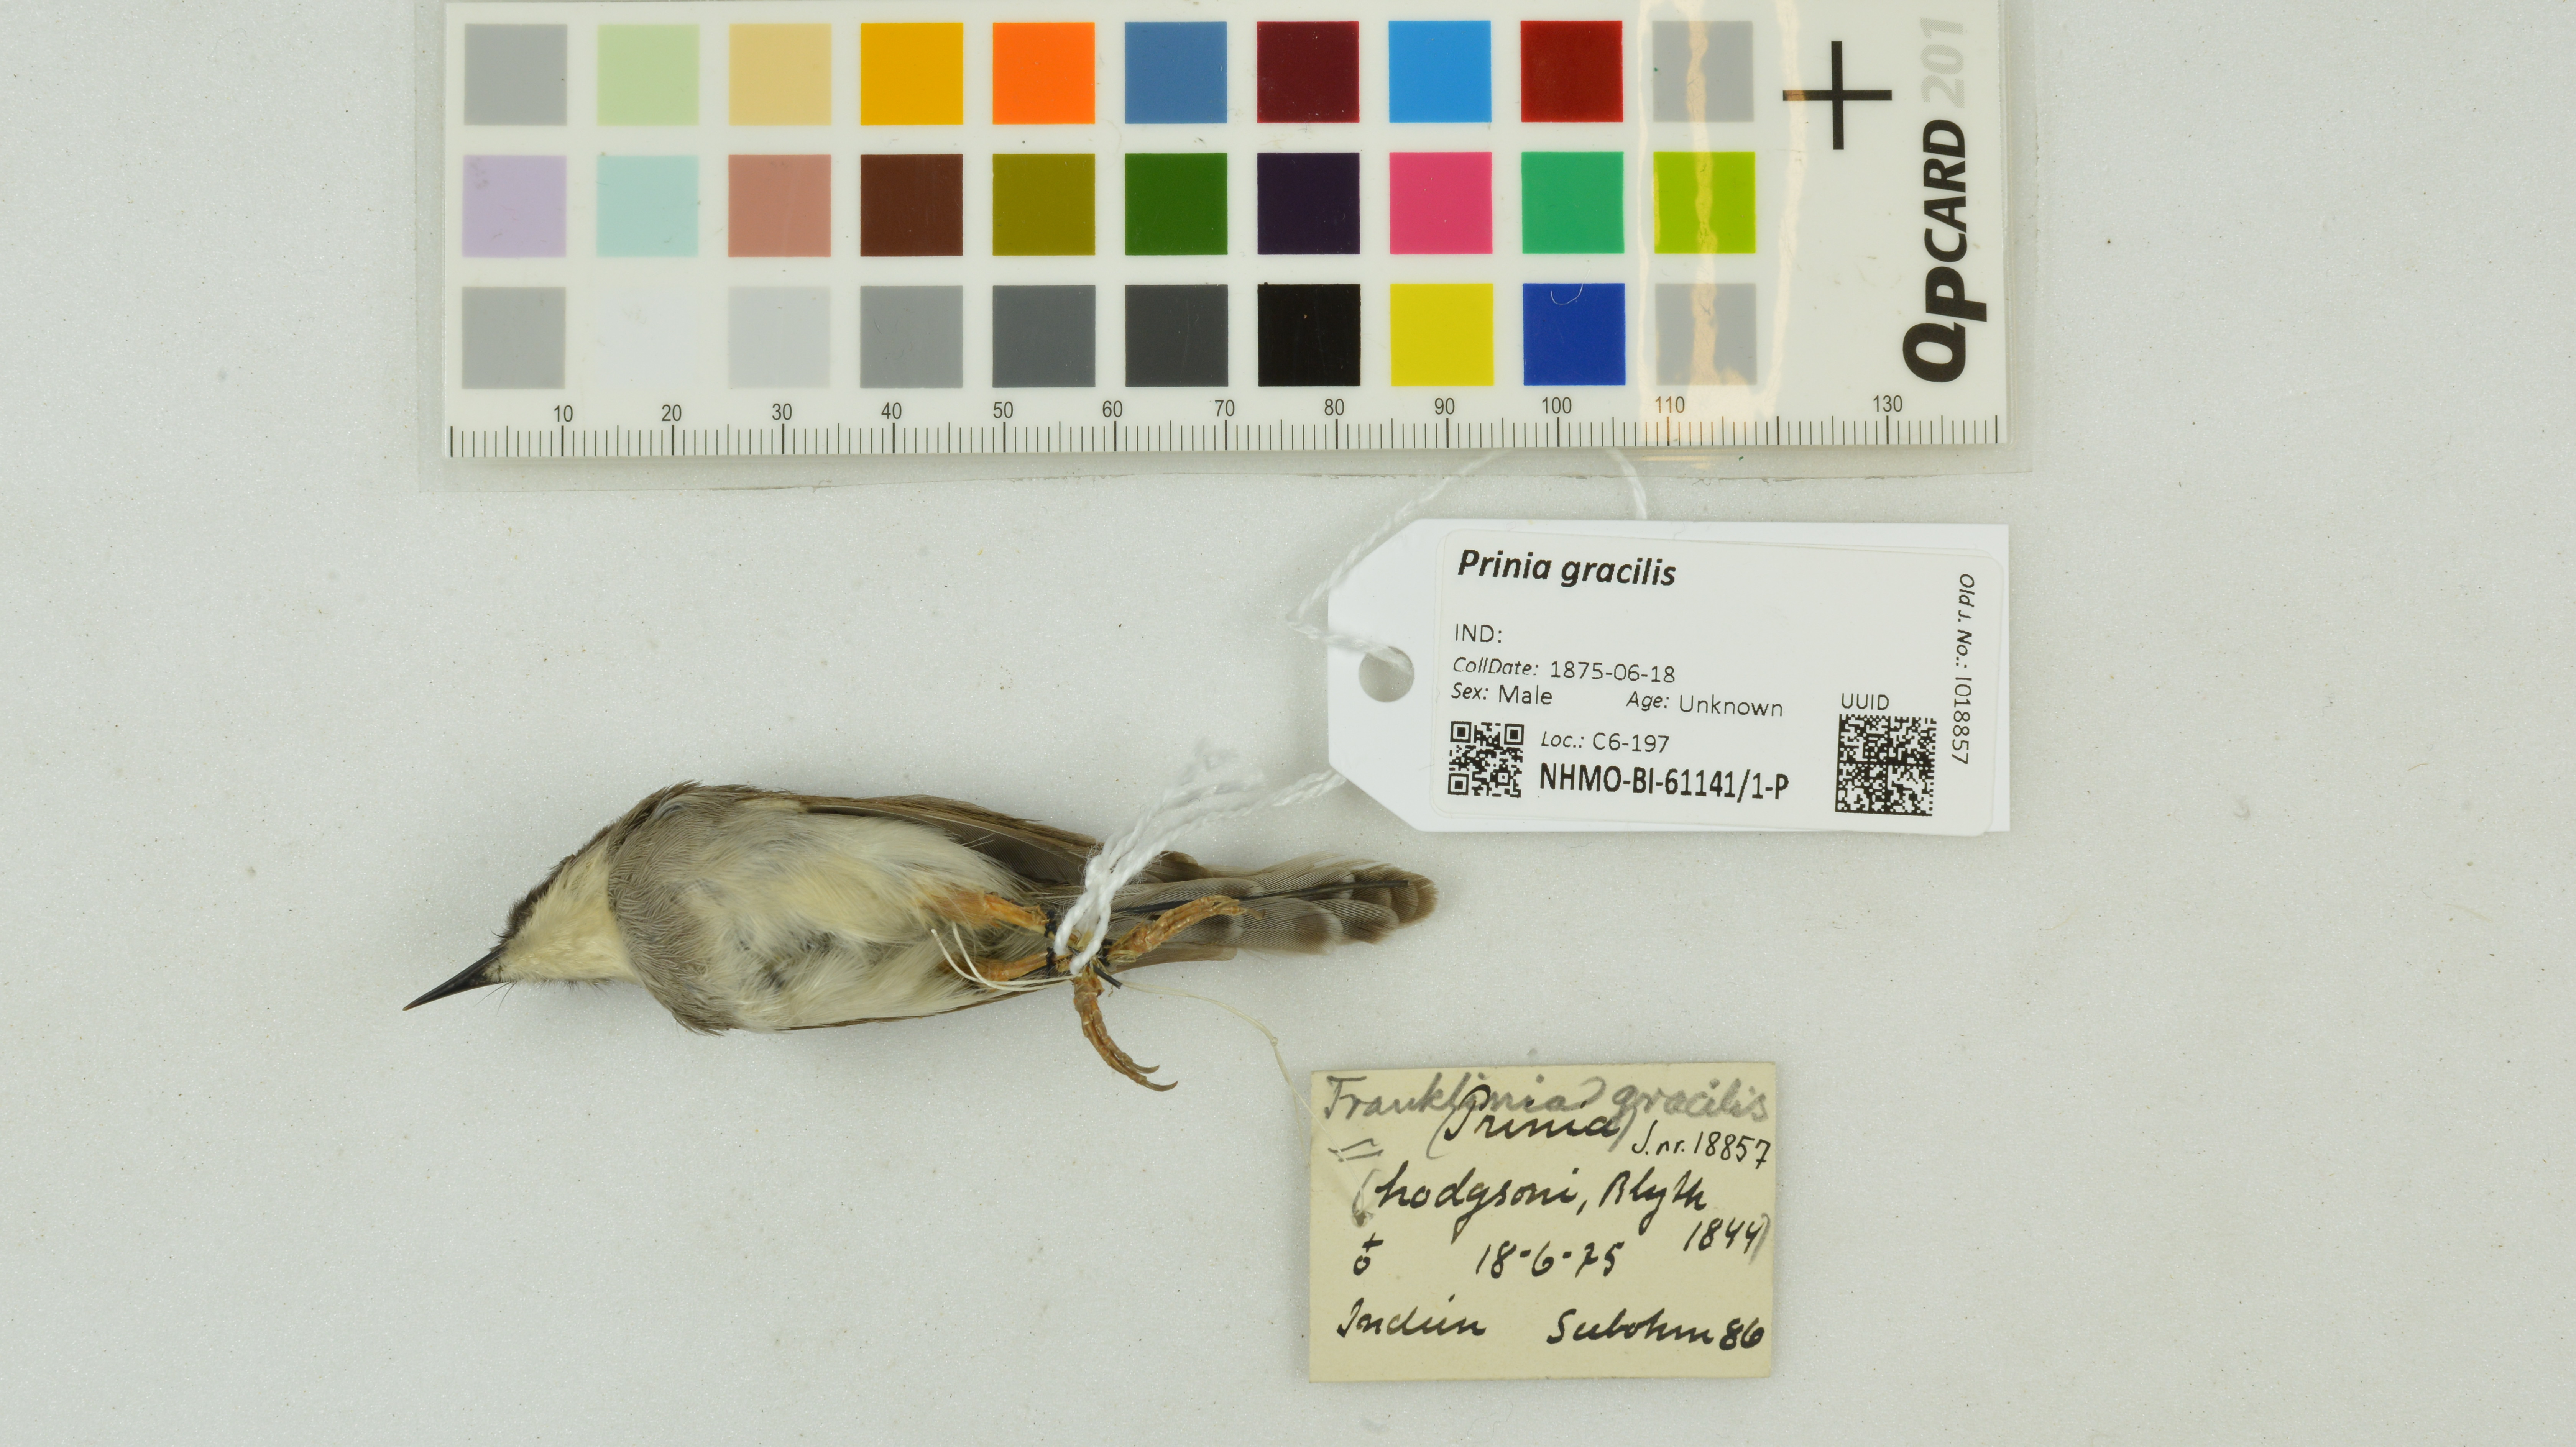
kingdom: Animalia
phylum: Chordata
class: Aves
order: Passeriformes
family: Cisticolidae
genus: Prinia
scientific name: Prinia gracilis
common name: Graceful prinia
